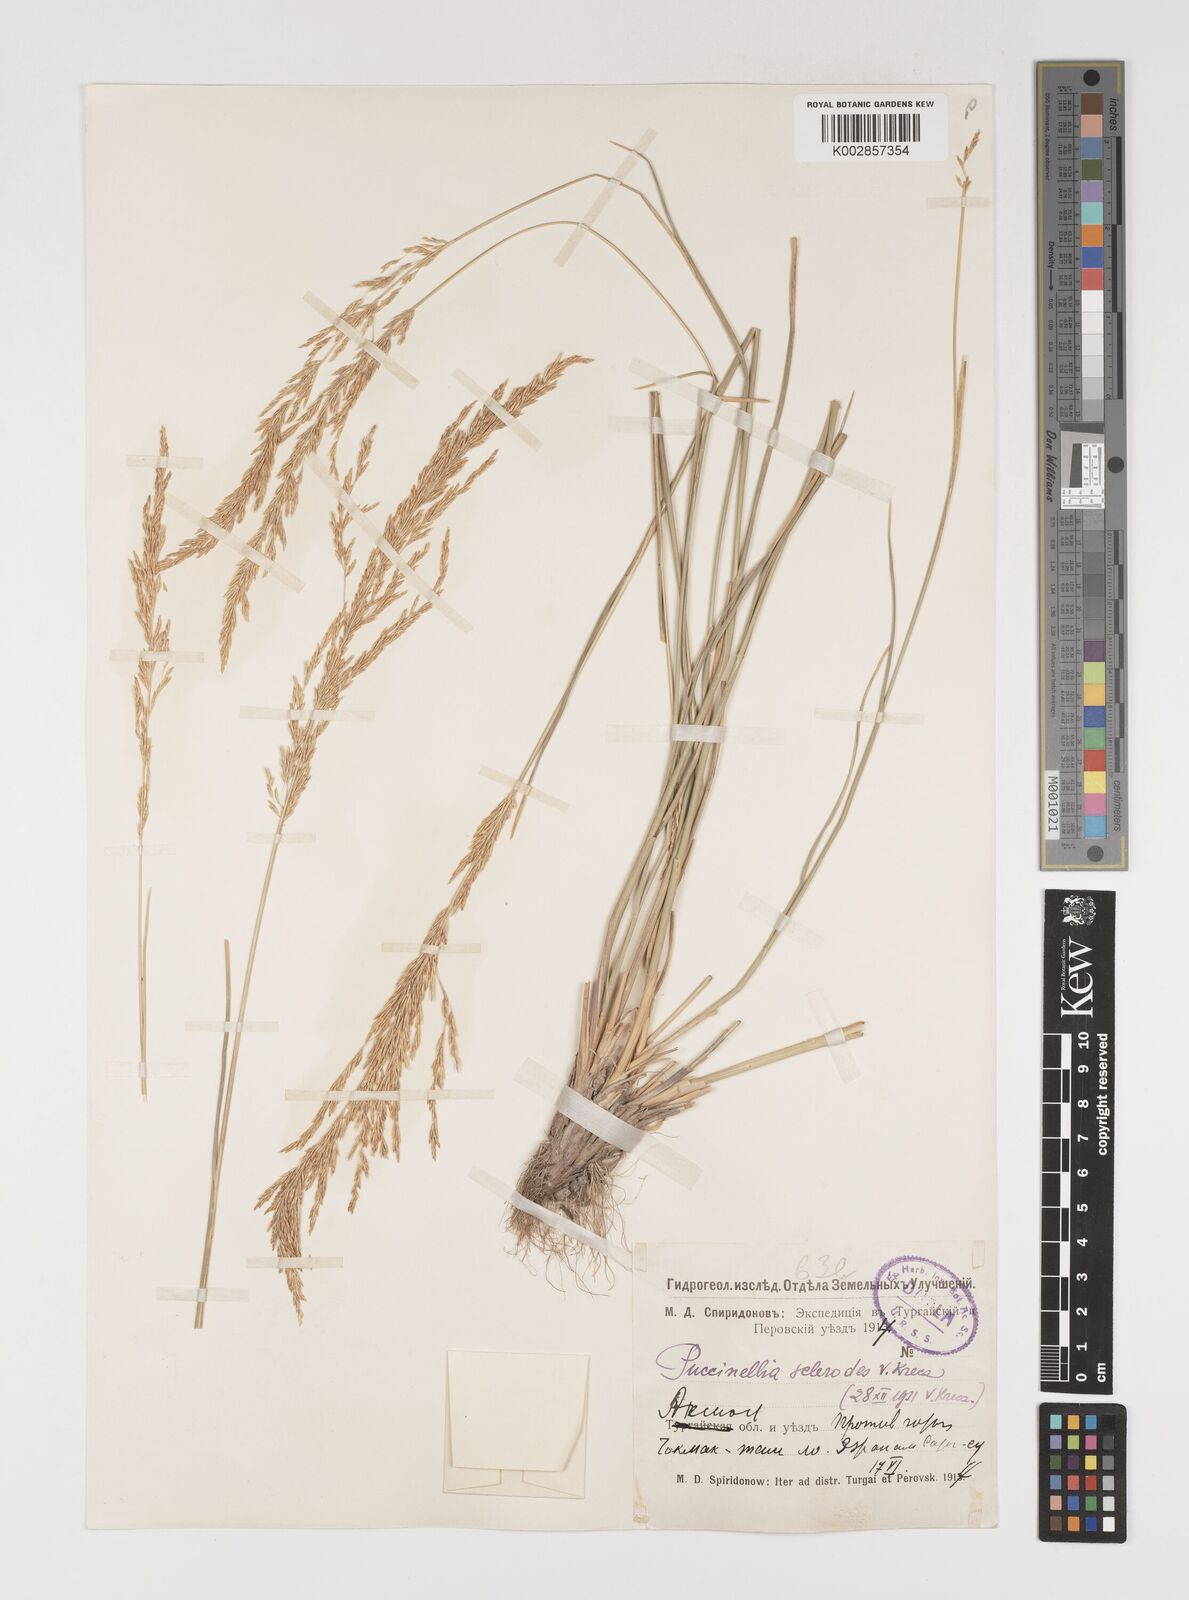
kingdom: Plantae
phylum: Tracheophyta
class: Liliopsida
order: Poales
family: Poaceae
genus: Puccinellia
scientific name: Puccinellia gigantea
